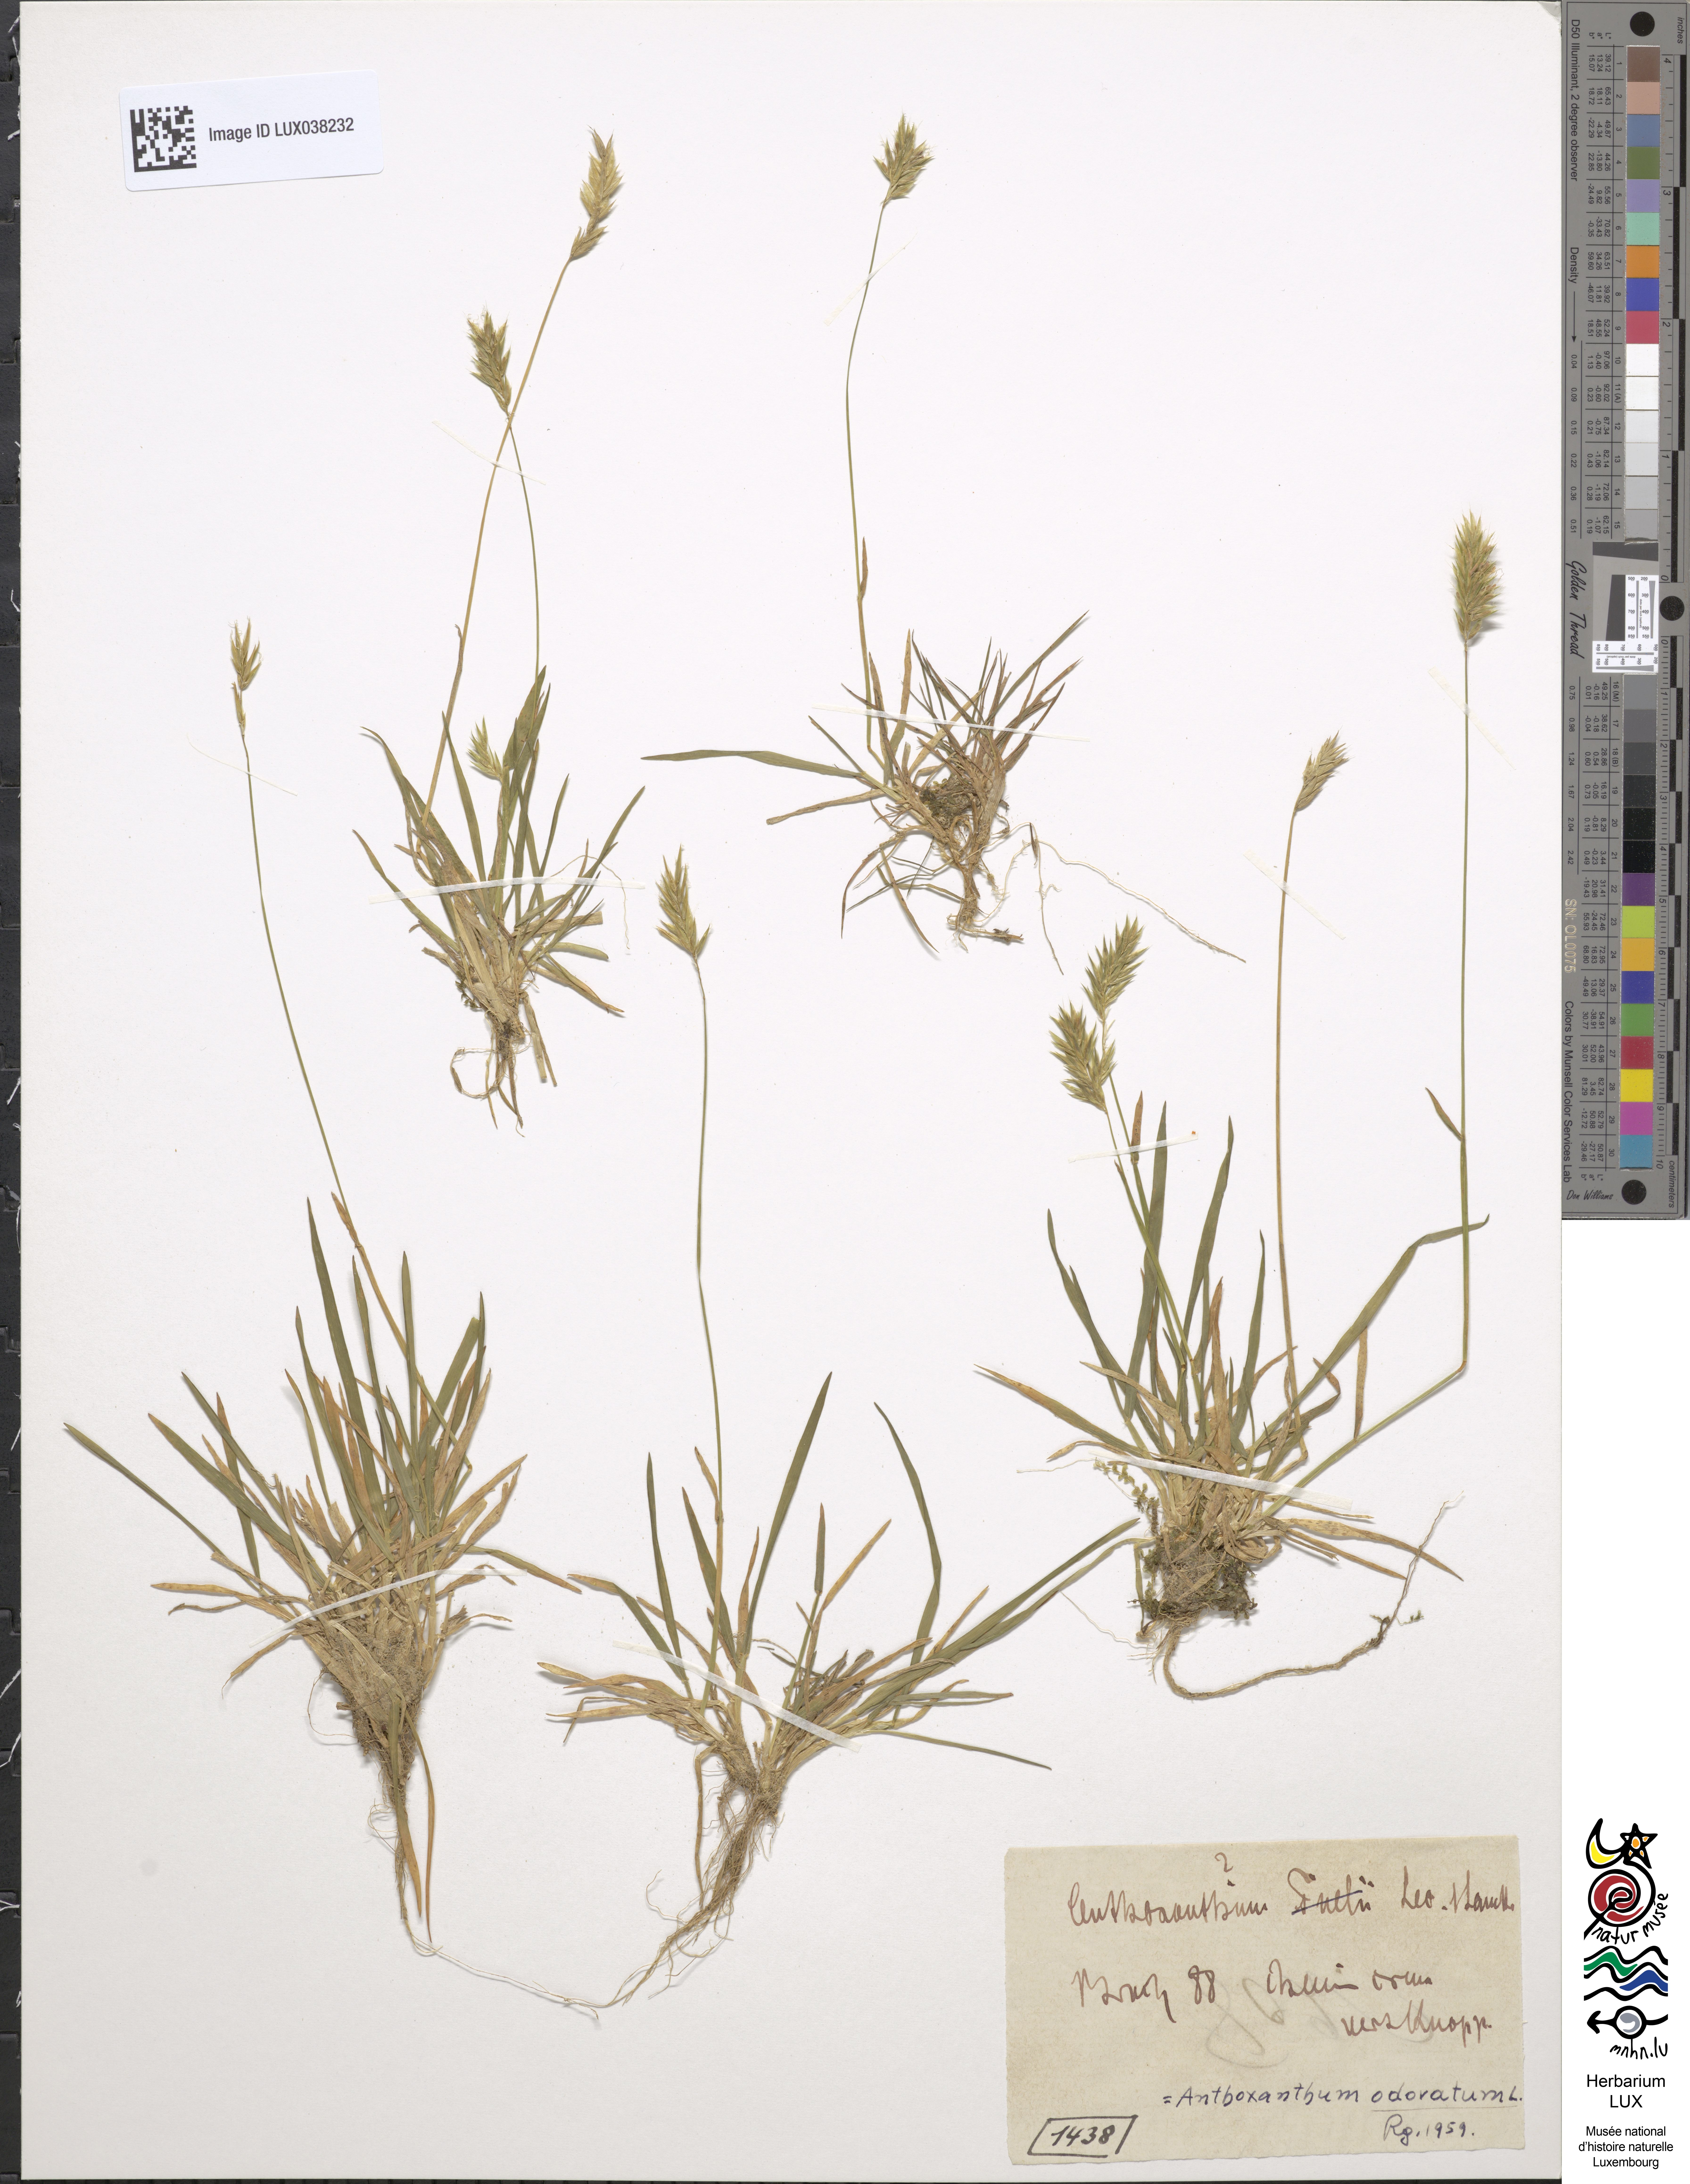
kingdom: Plantae
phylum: Tracheophyta
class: Liliopsida
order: Poales
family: Poaceae
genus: Anthoxanthum
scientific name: Anthoxanthum odoratum
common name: Sweet vernalgrass
